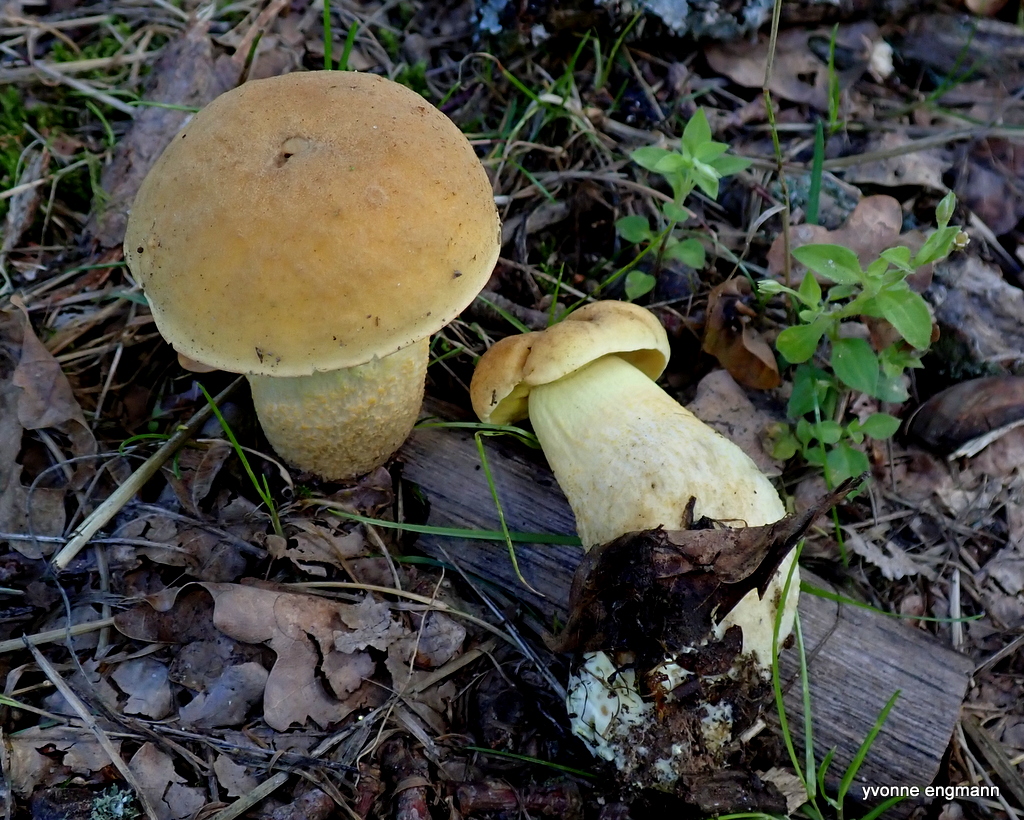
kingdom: Fungi
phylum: Basidiomycota
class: Agaricomycetes
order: Boletales
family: Boletaceae
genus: Leccinellum
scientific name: Leccinellum crocipodium
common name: gul skælrørhat
